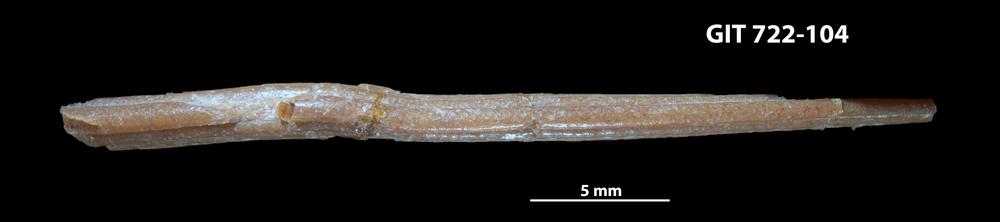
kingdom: Animalia
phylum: Chordata
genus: Devononchus
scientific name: Devononchus concinnus
